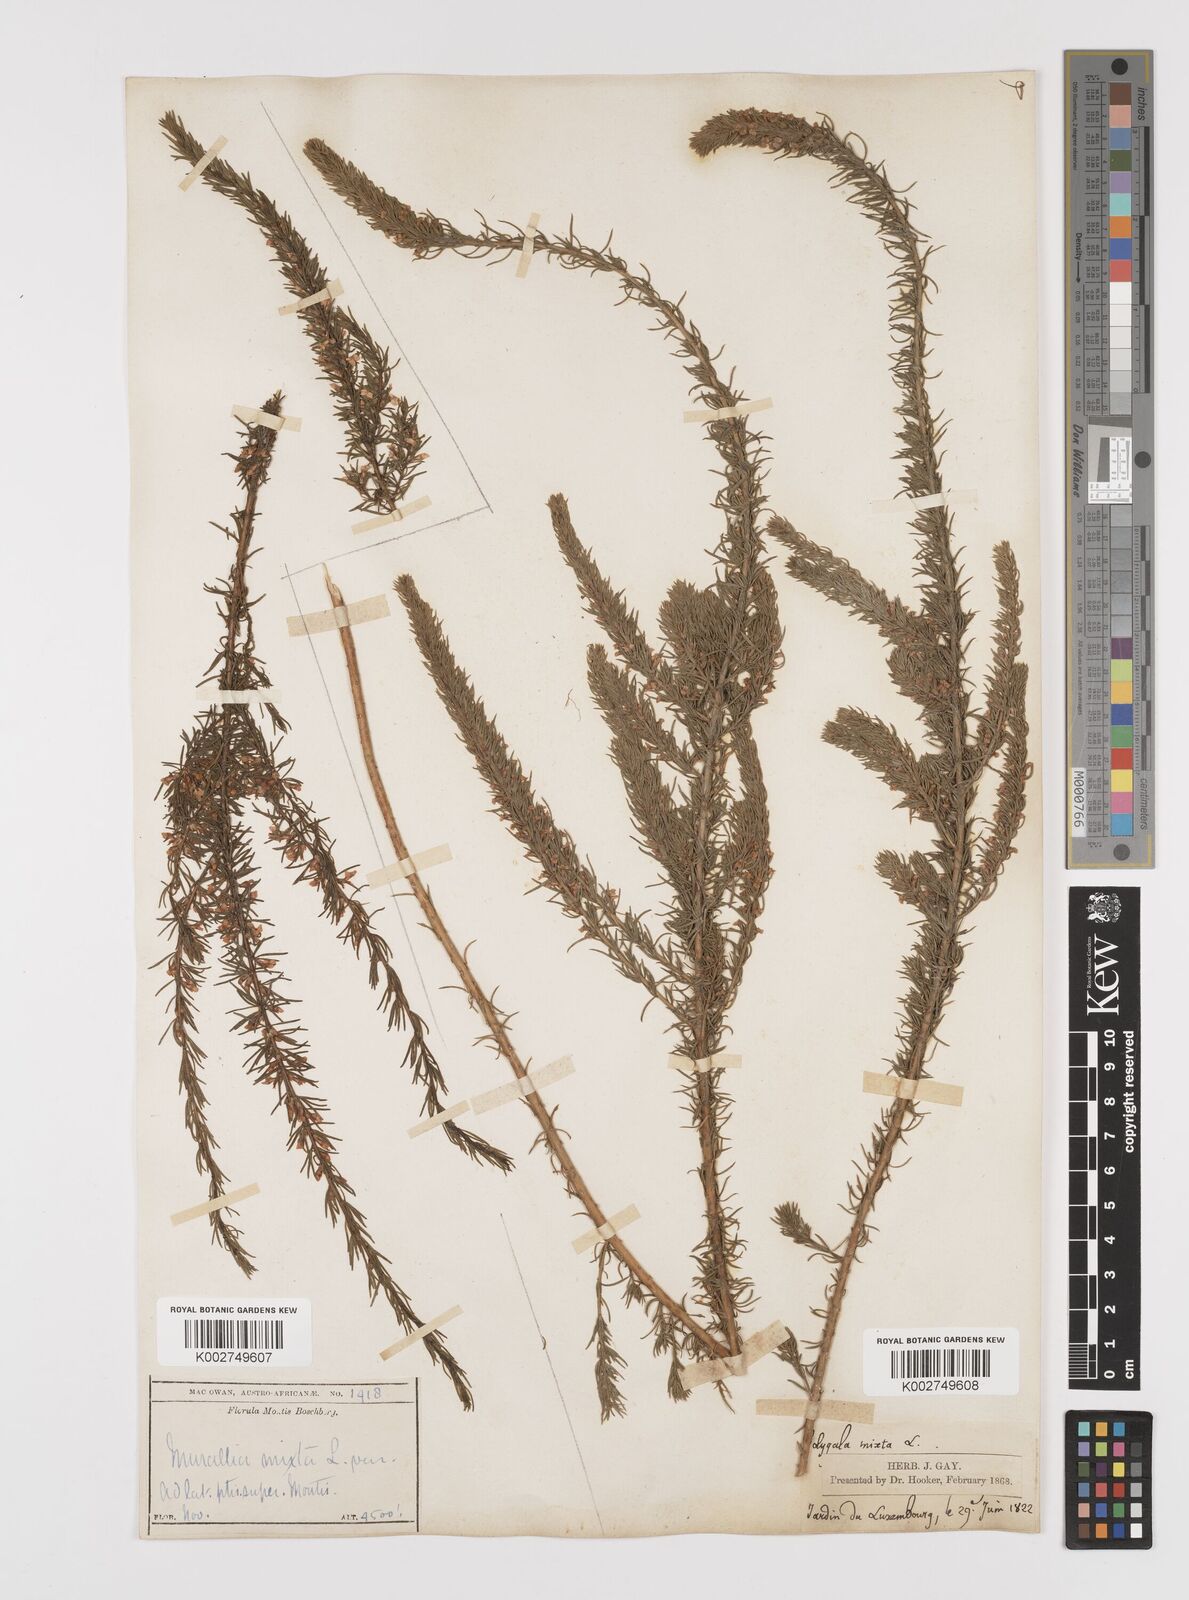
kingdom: Plantae
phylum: Tracheophyta
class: Magnoliopsida
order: Fabales
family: Polygalaceae
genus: Muraltia
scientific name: Muraltia alopecuroides
